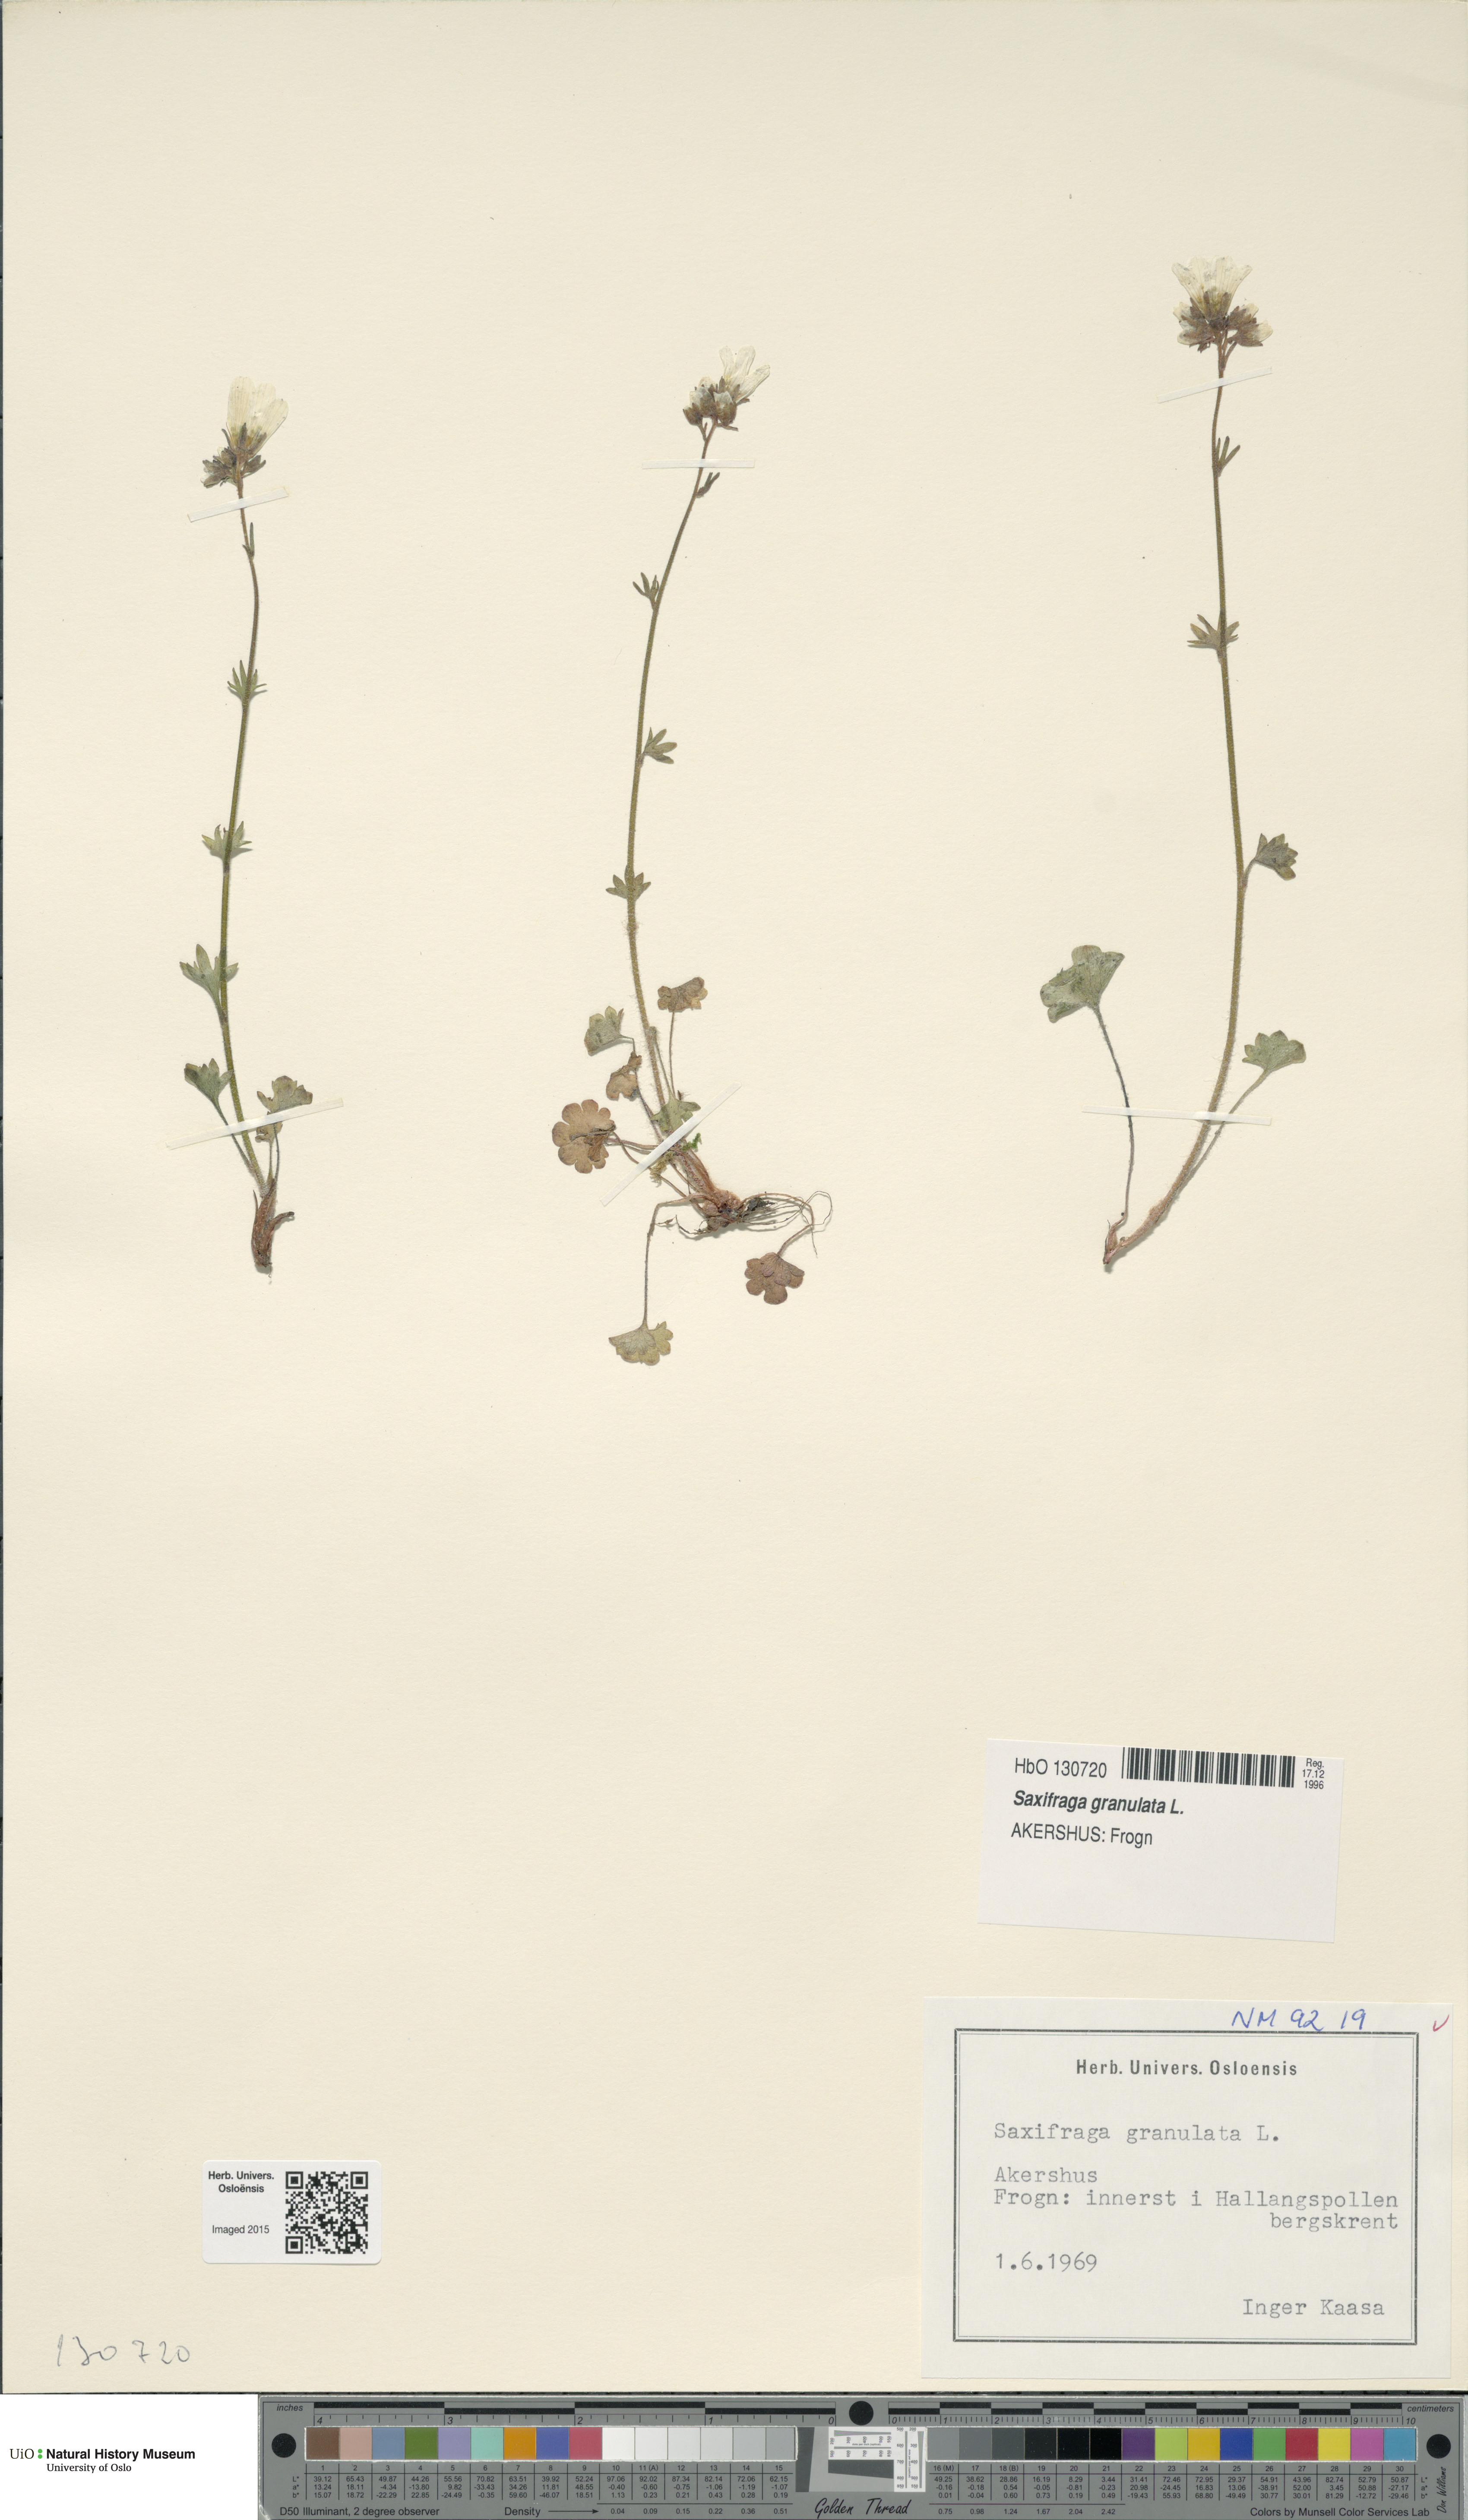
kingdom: Plantae
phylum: Tracheophyta
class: Magnoliopsida
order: Saxifragales
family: Saxifragaceae
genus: Saxifraga
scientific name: Saxifraga granulata
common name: Meadow saxifrage
